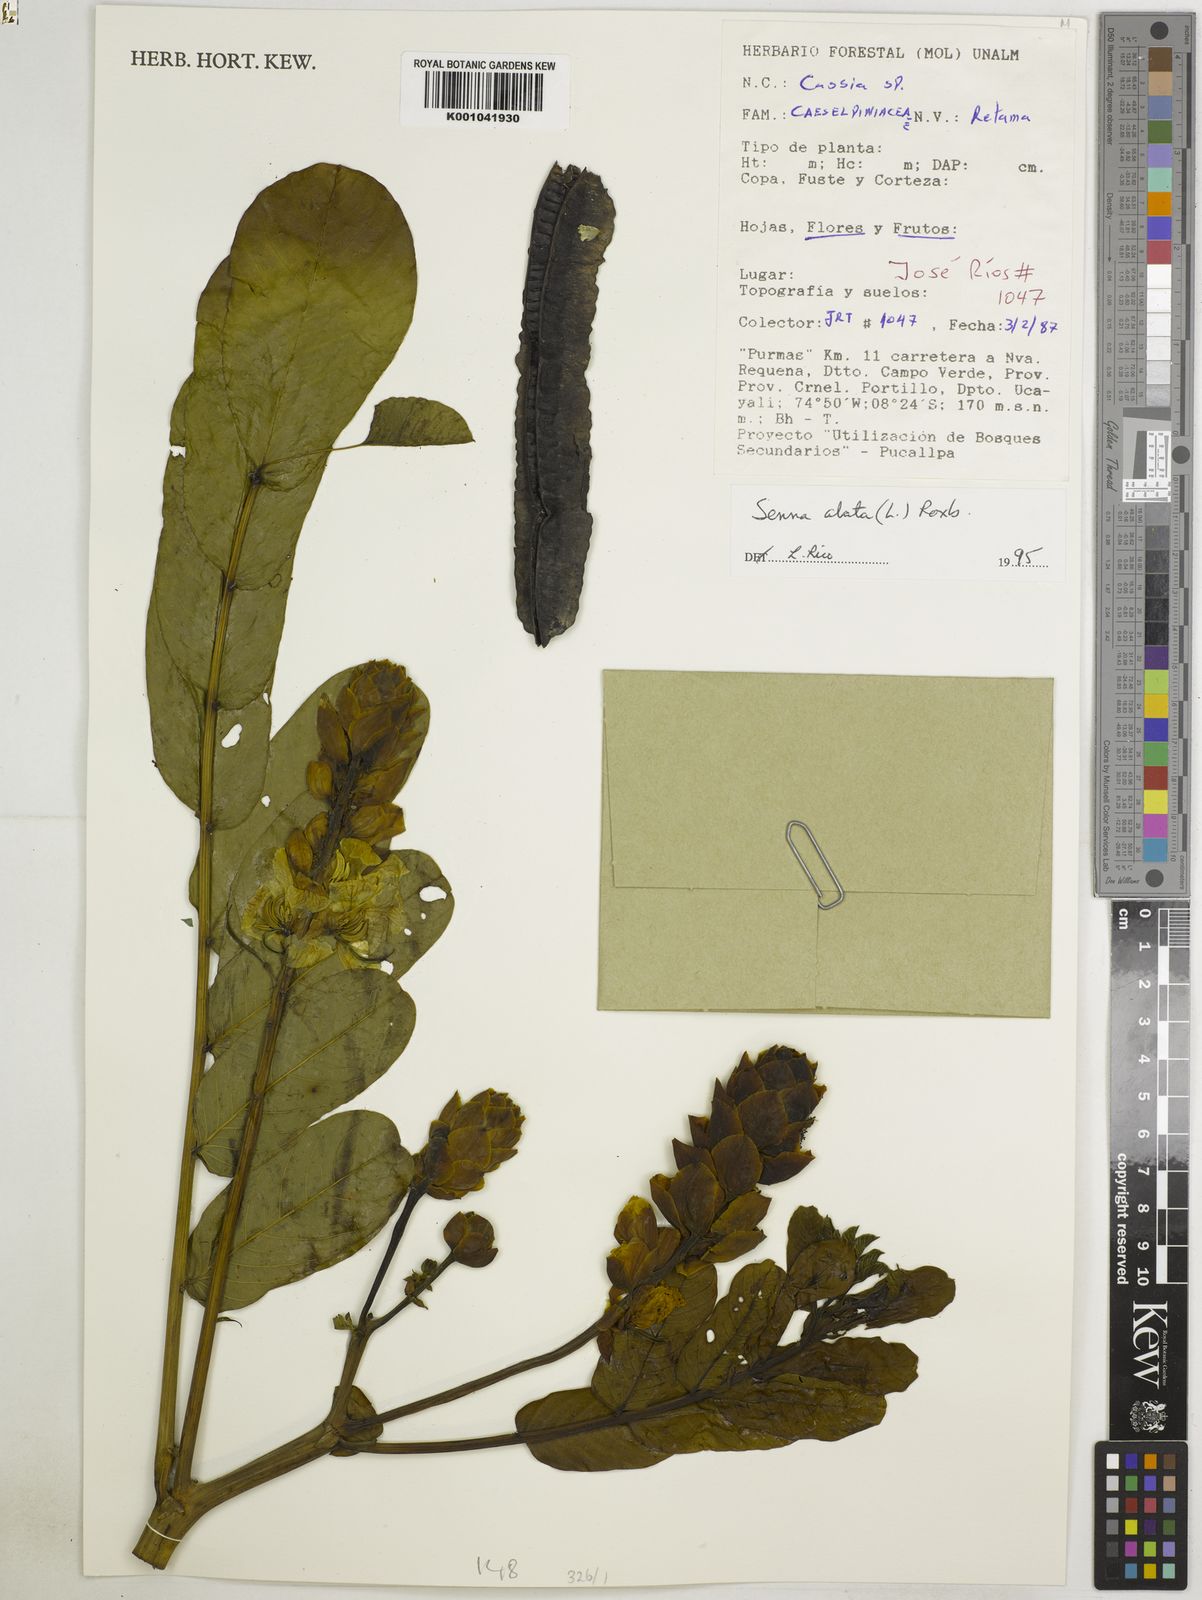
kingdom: Plantae
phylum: Tracheophyta
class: Magnoliopsida
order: Fabales
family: Fabaceae
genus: Senna
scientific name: Senna alata
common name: Emperor's candlesticks
